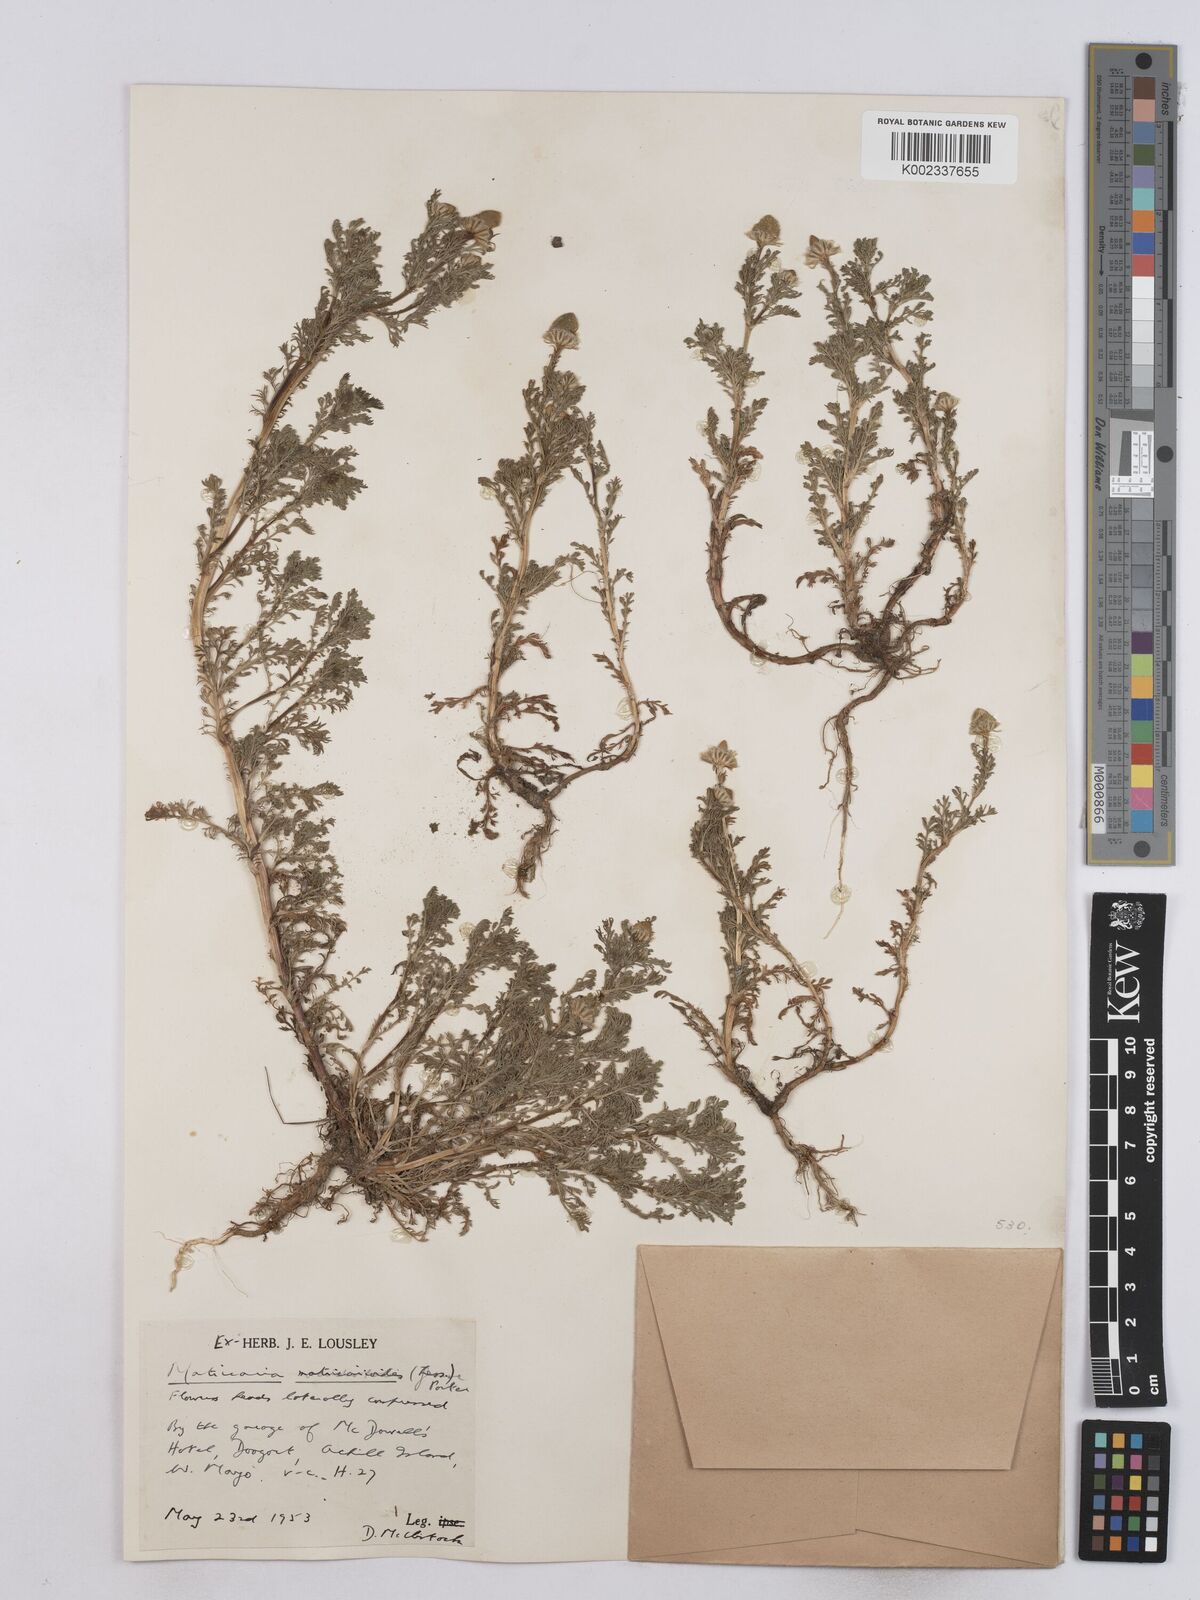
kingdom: Plantae
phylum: Tracheophyta
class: Magnoliopsida
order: Asterales
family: Asteraceae
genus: Matricaria
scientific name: Matricaria discoidea
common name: Disc mayweed
